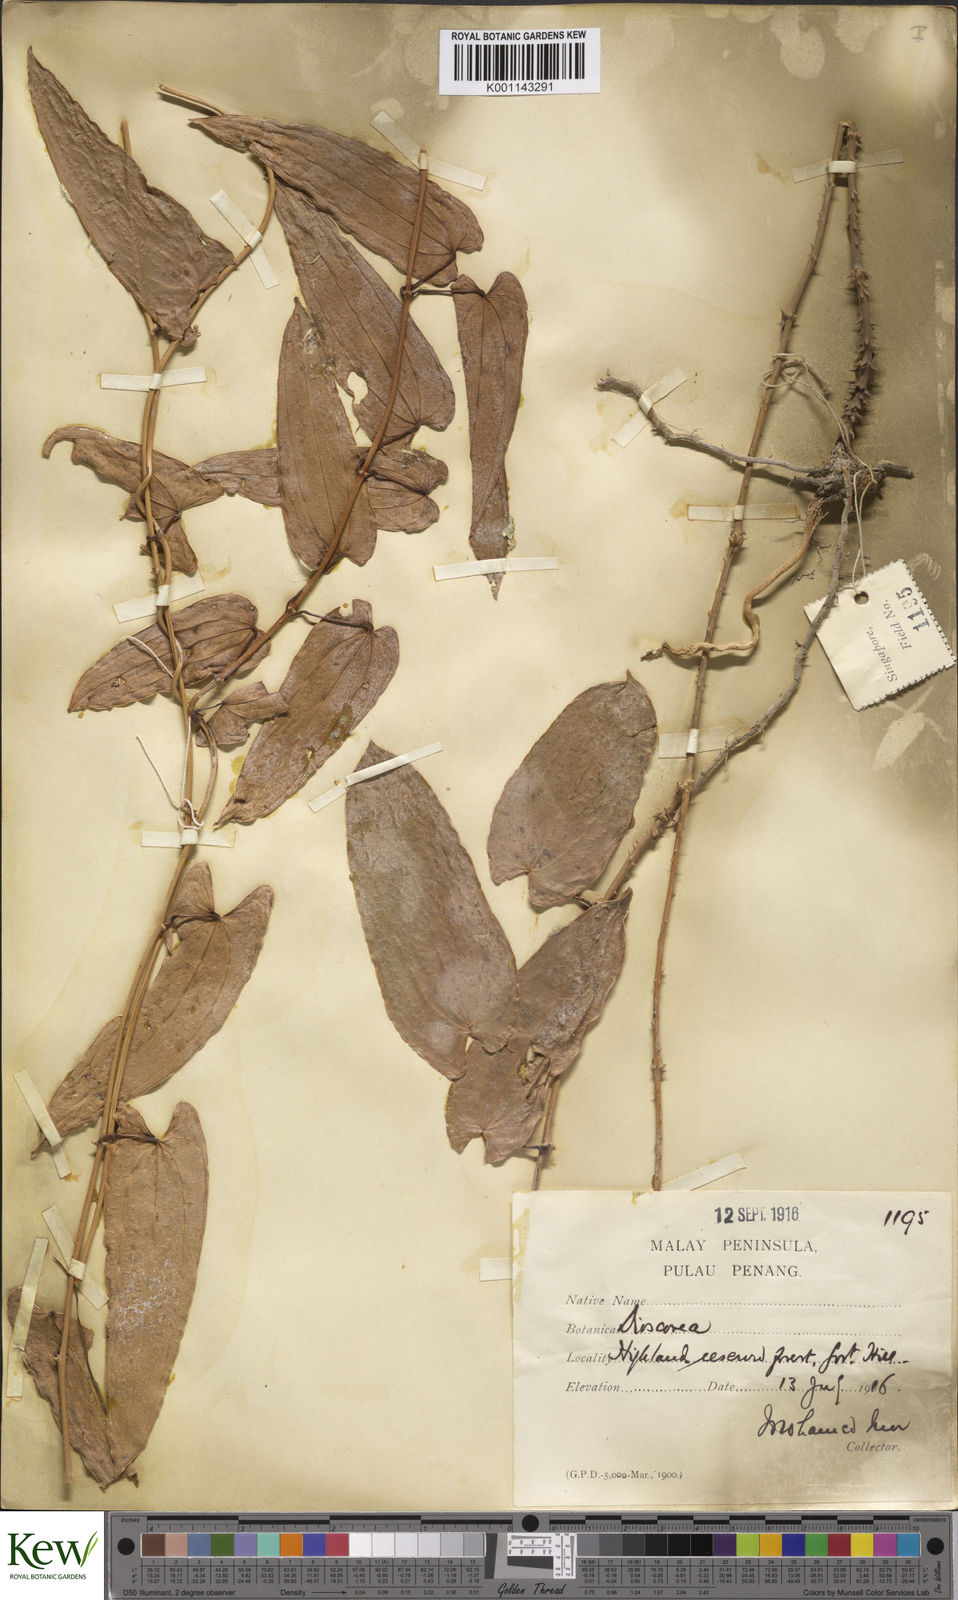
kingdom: Plantae
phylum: Tracheophyta
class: Liliopsida
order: Dioscoreales
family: Dioscoreaceae
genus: Dioscorea
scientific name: Dioscorea glabra
